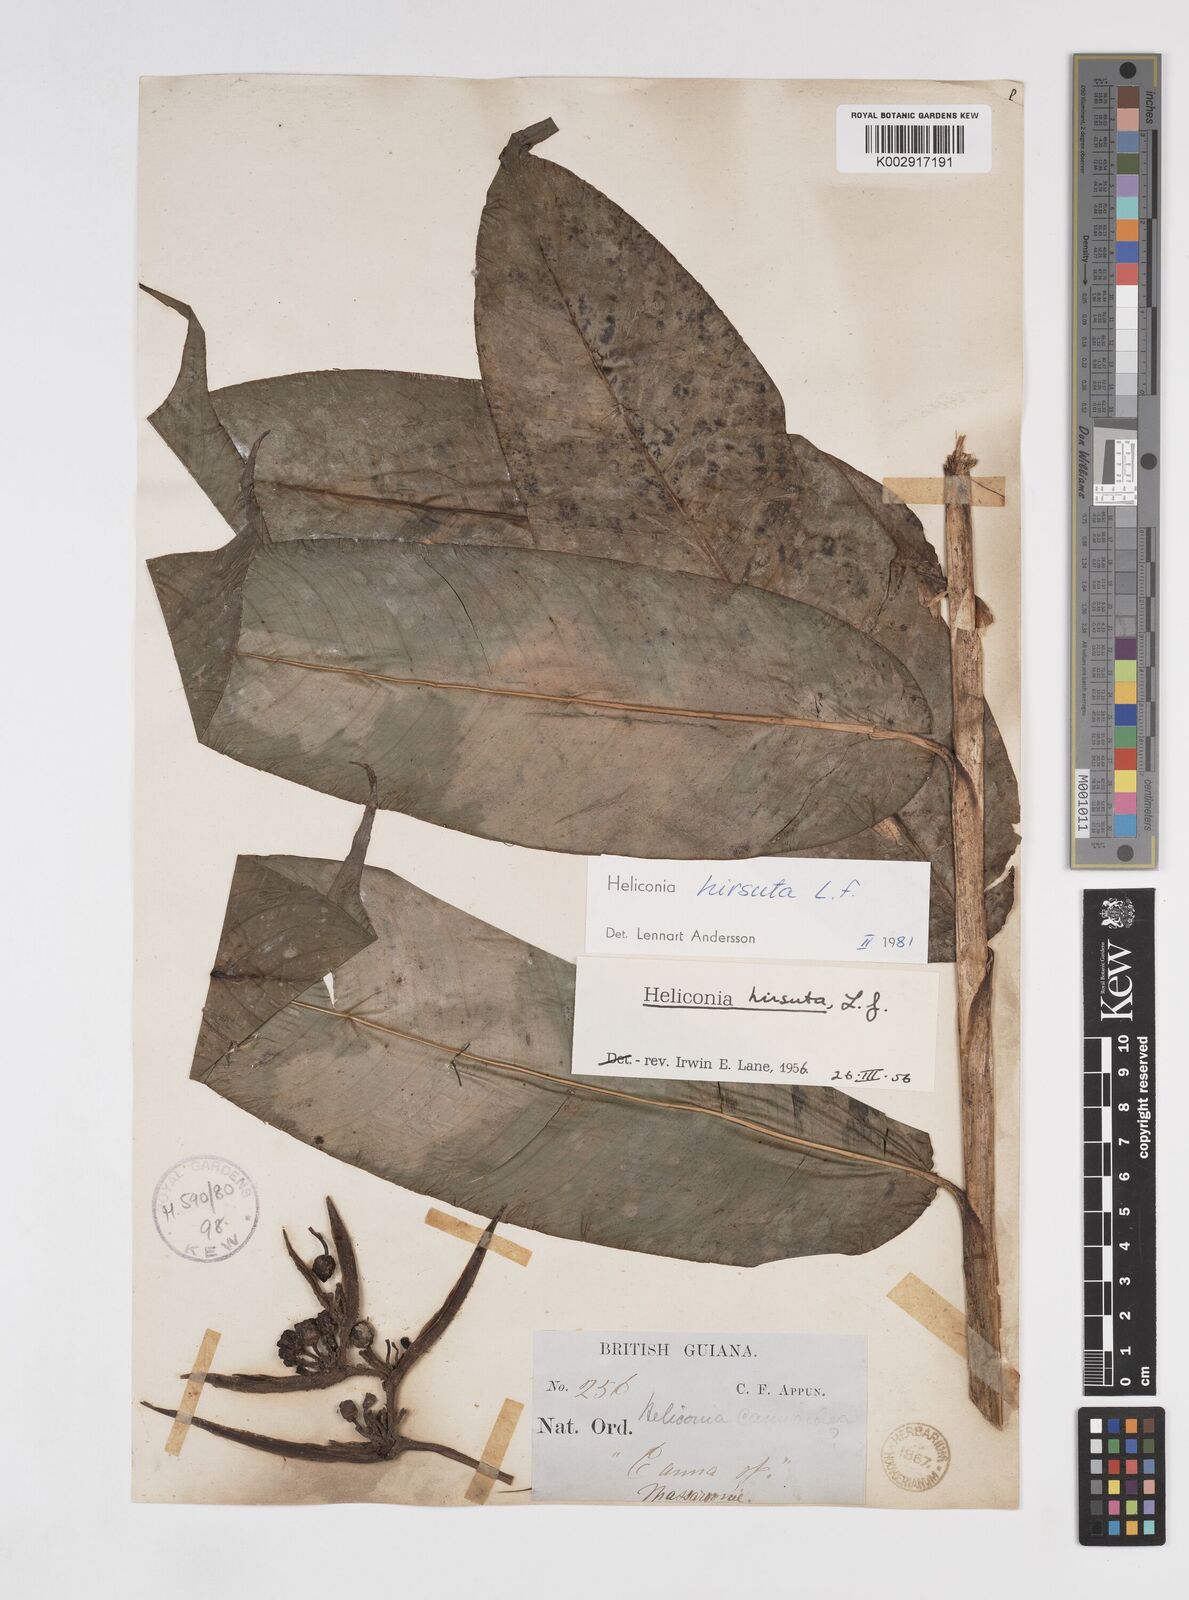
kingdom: Plantae
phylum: Tracheophyta
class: Liliopsida
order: Zingiberales
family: Heliconiaceae
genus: Heliconia
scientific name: Heliconia hirsuta
